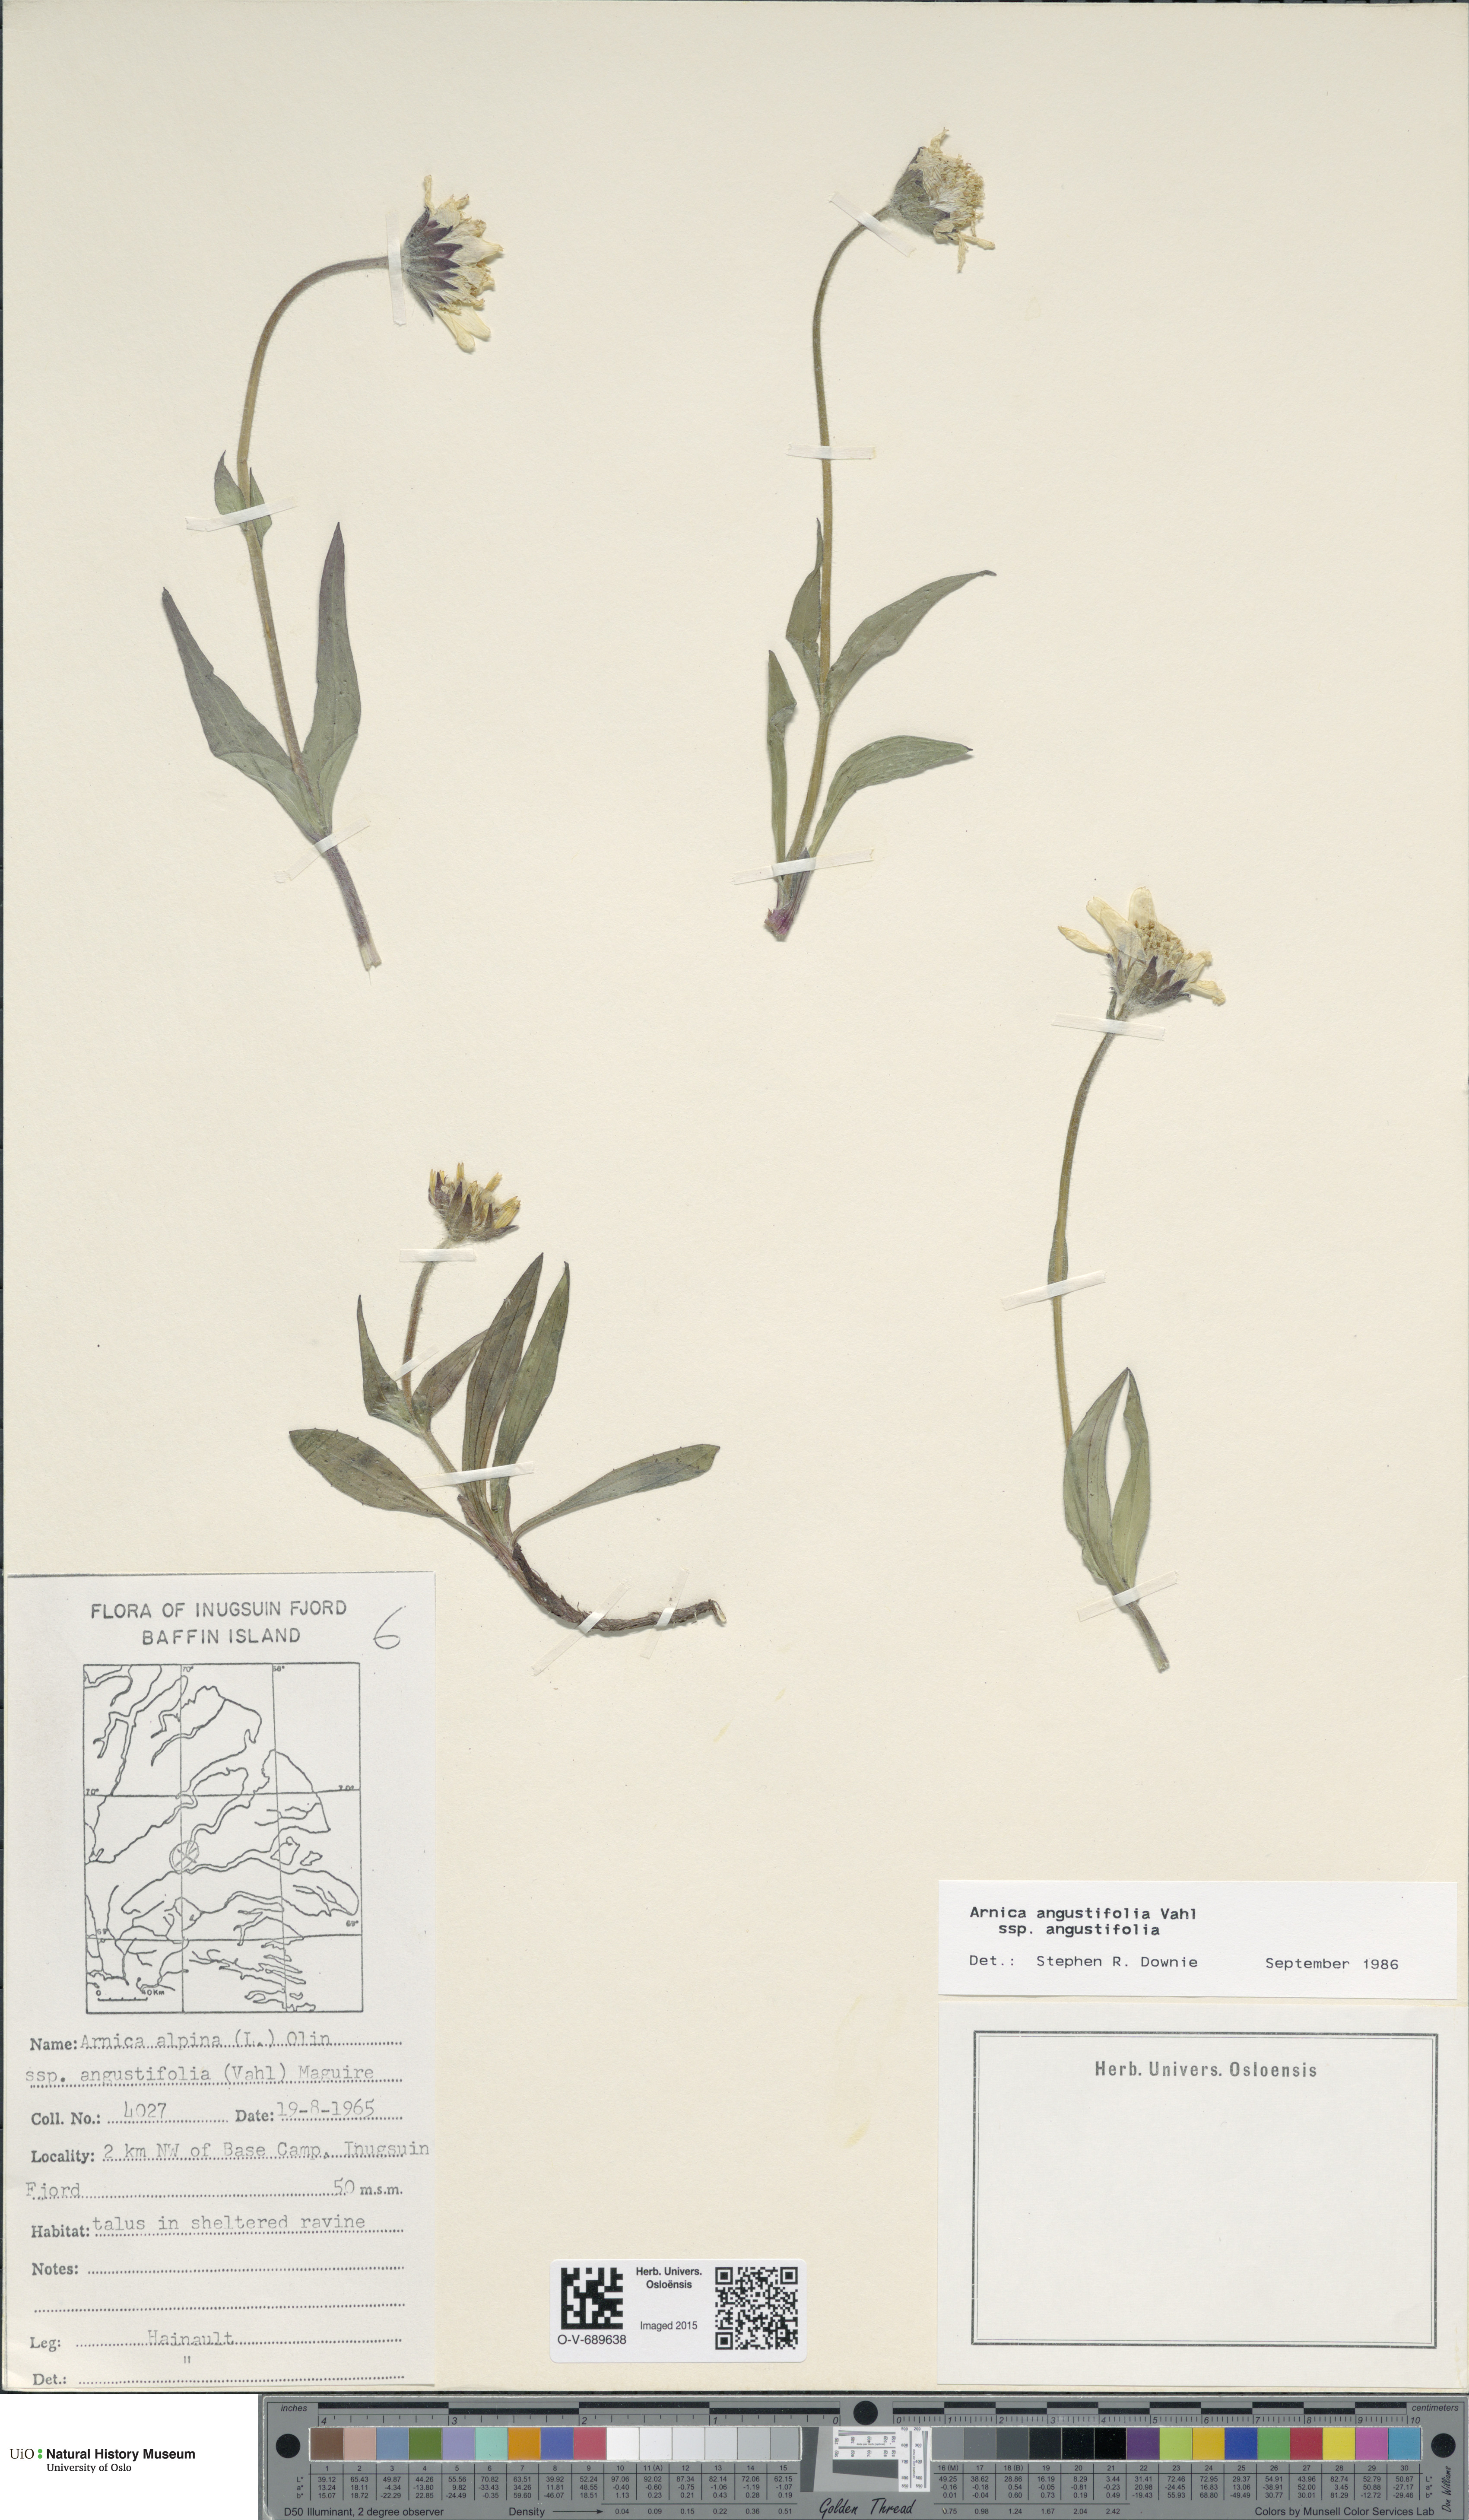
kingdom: Plantae
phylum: Tracheophyta
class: Magnoliopsida
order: Asterales
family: Asteraceae
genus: Arnica
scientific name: Arnica angustifolia
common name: Arctic arnica
